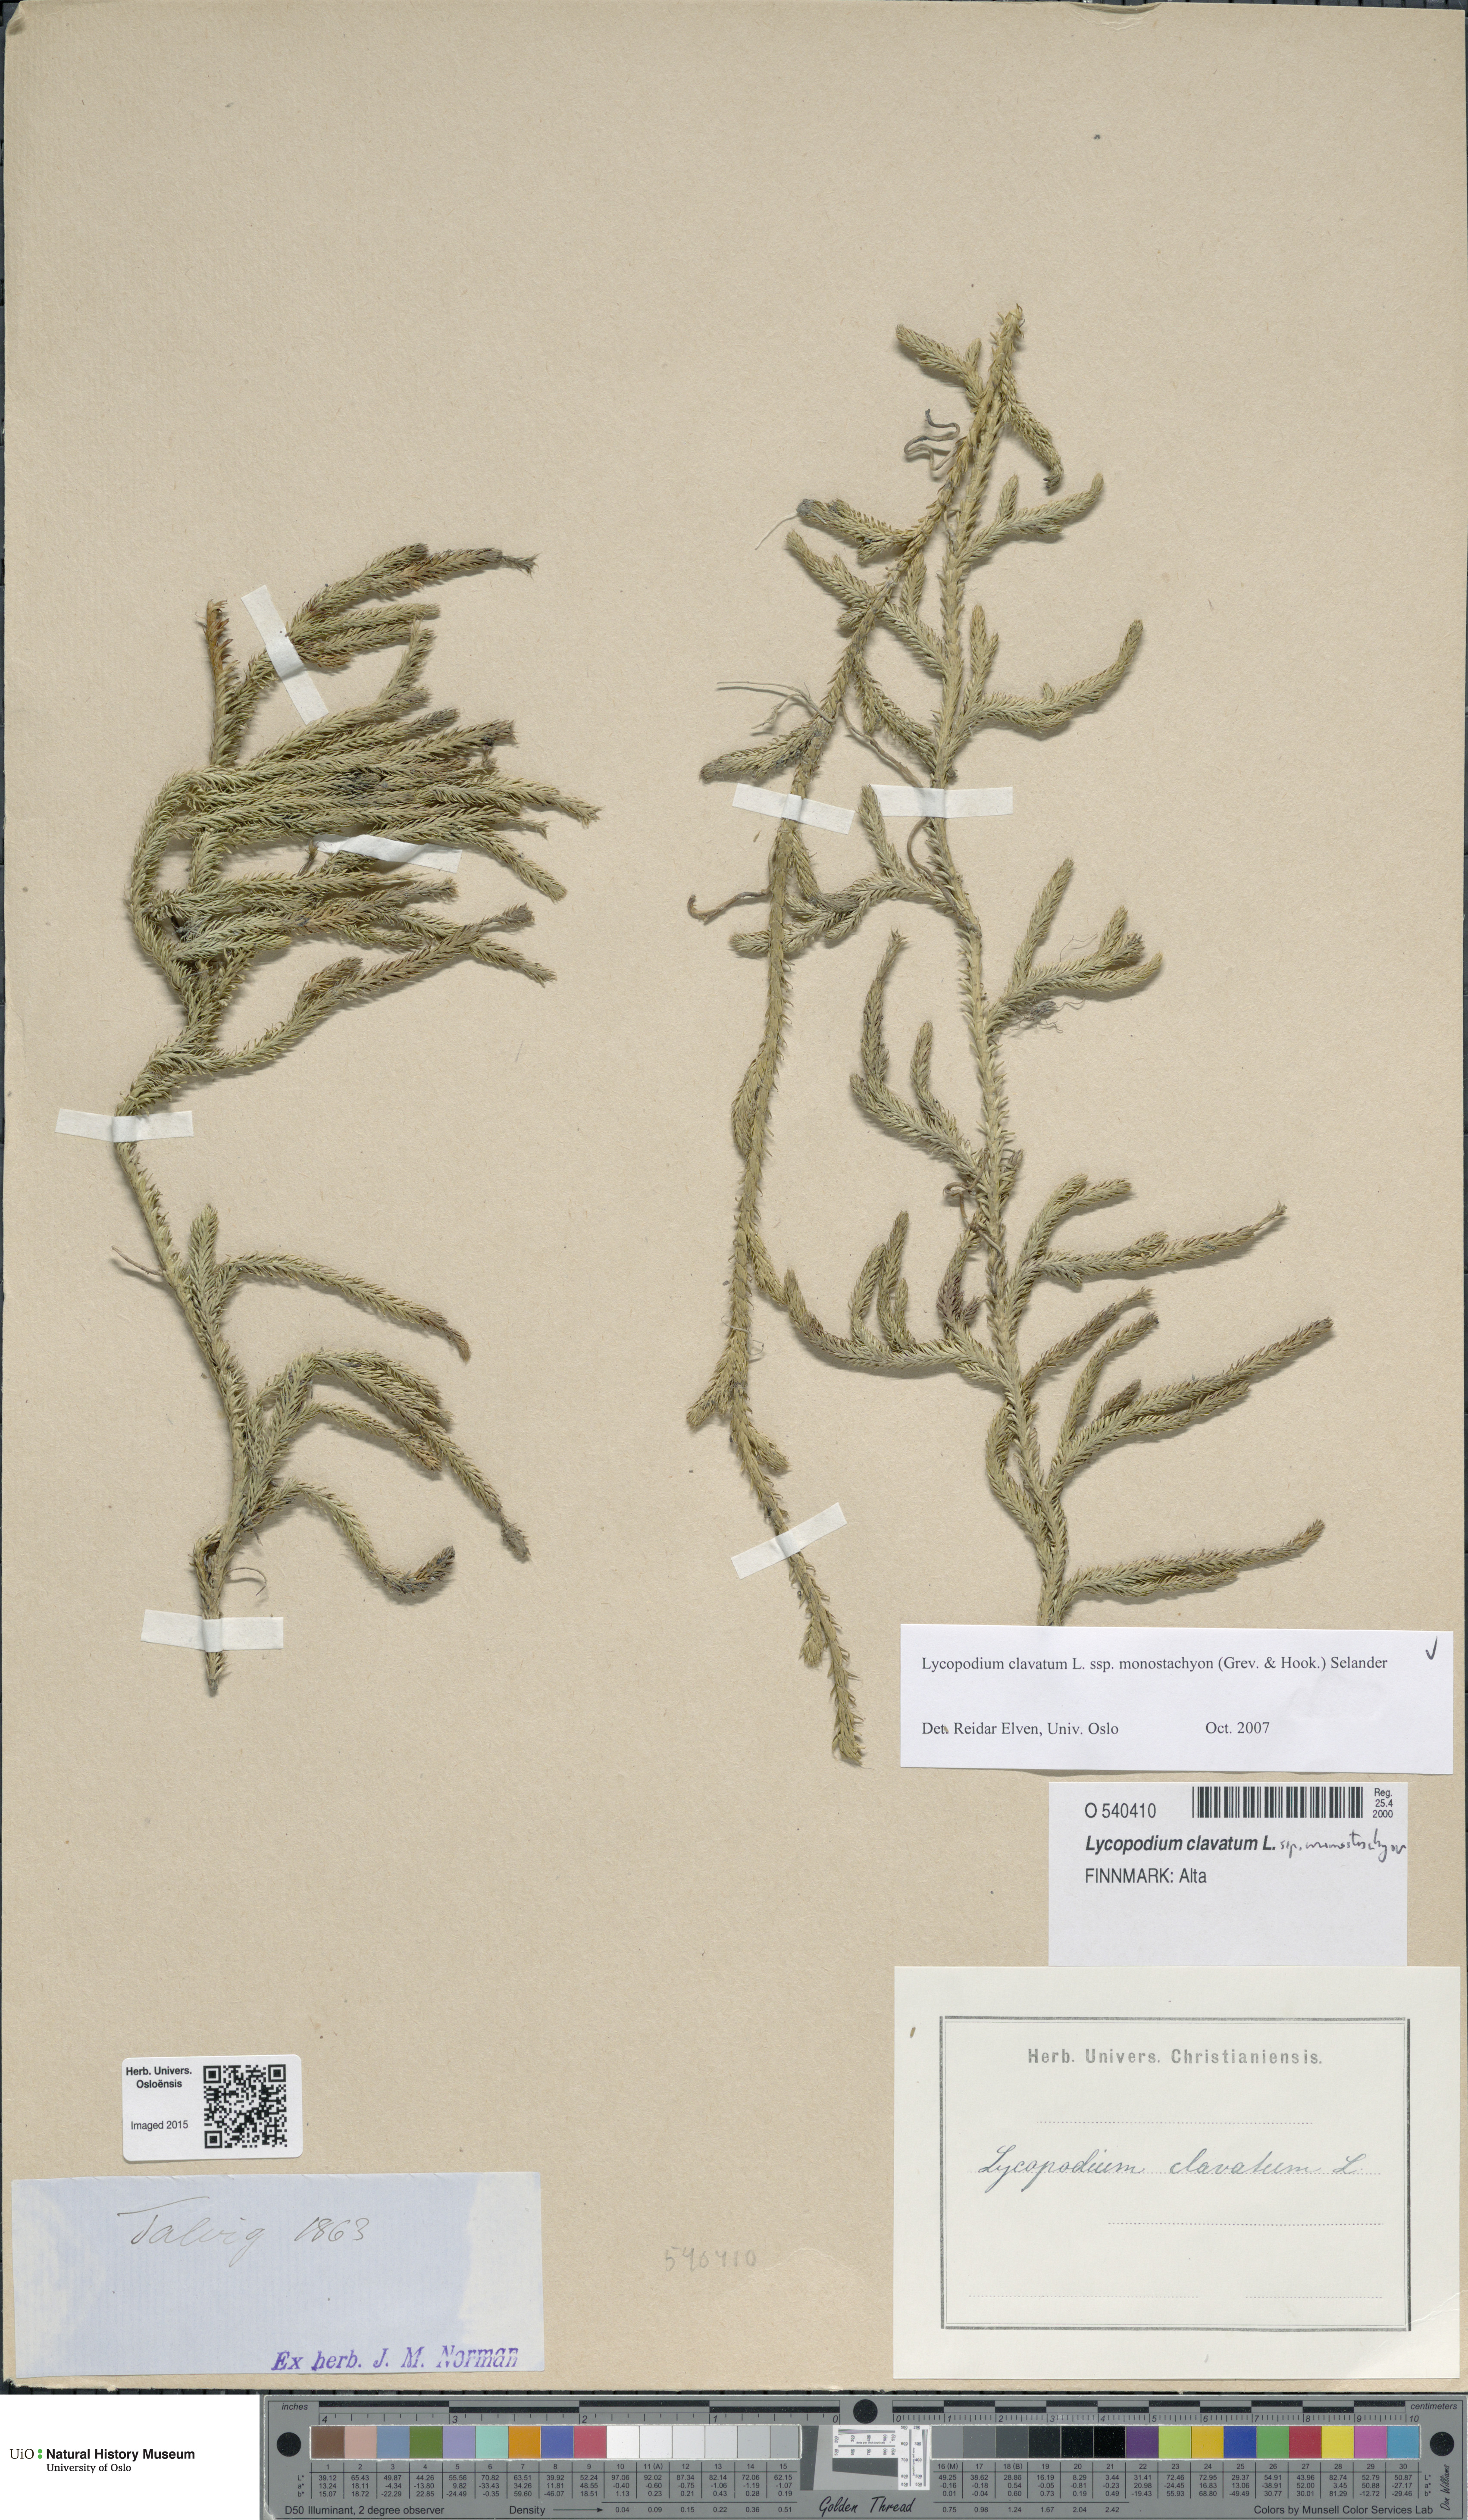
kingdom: Plantae
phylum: Tracheophyta
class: Lycopodiopsida
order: Lycopodiales
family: Lycopodiaceae
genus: Lycopodium
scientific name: Lycopodium lagopus
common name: One-cone clubmoss
